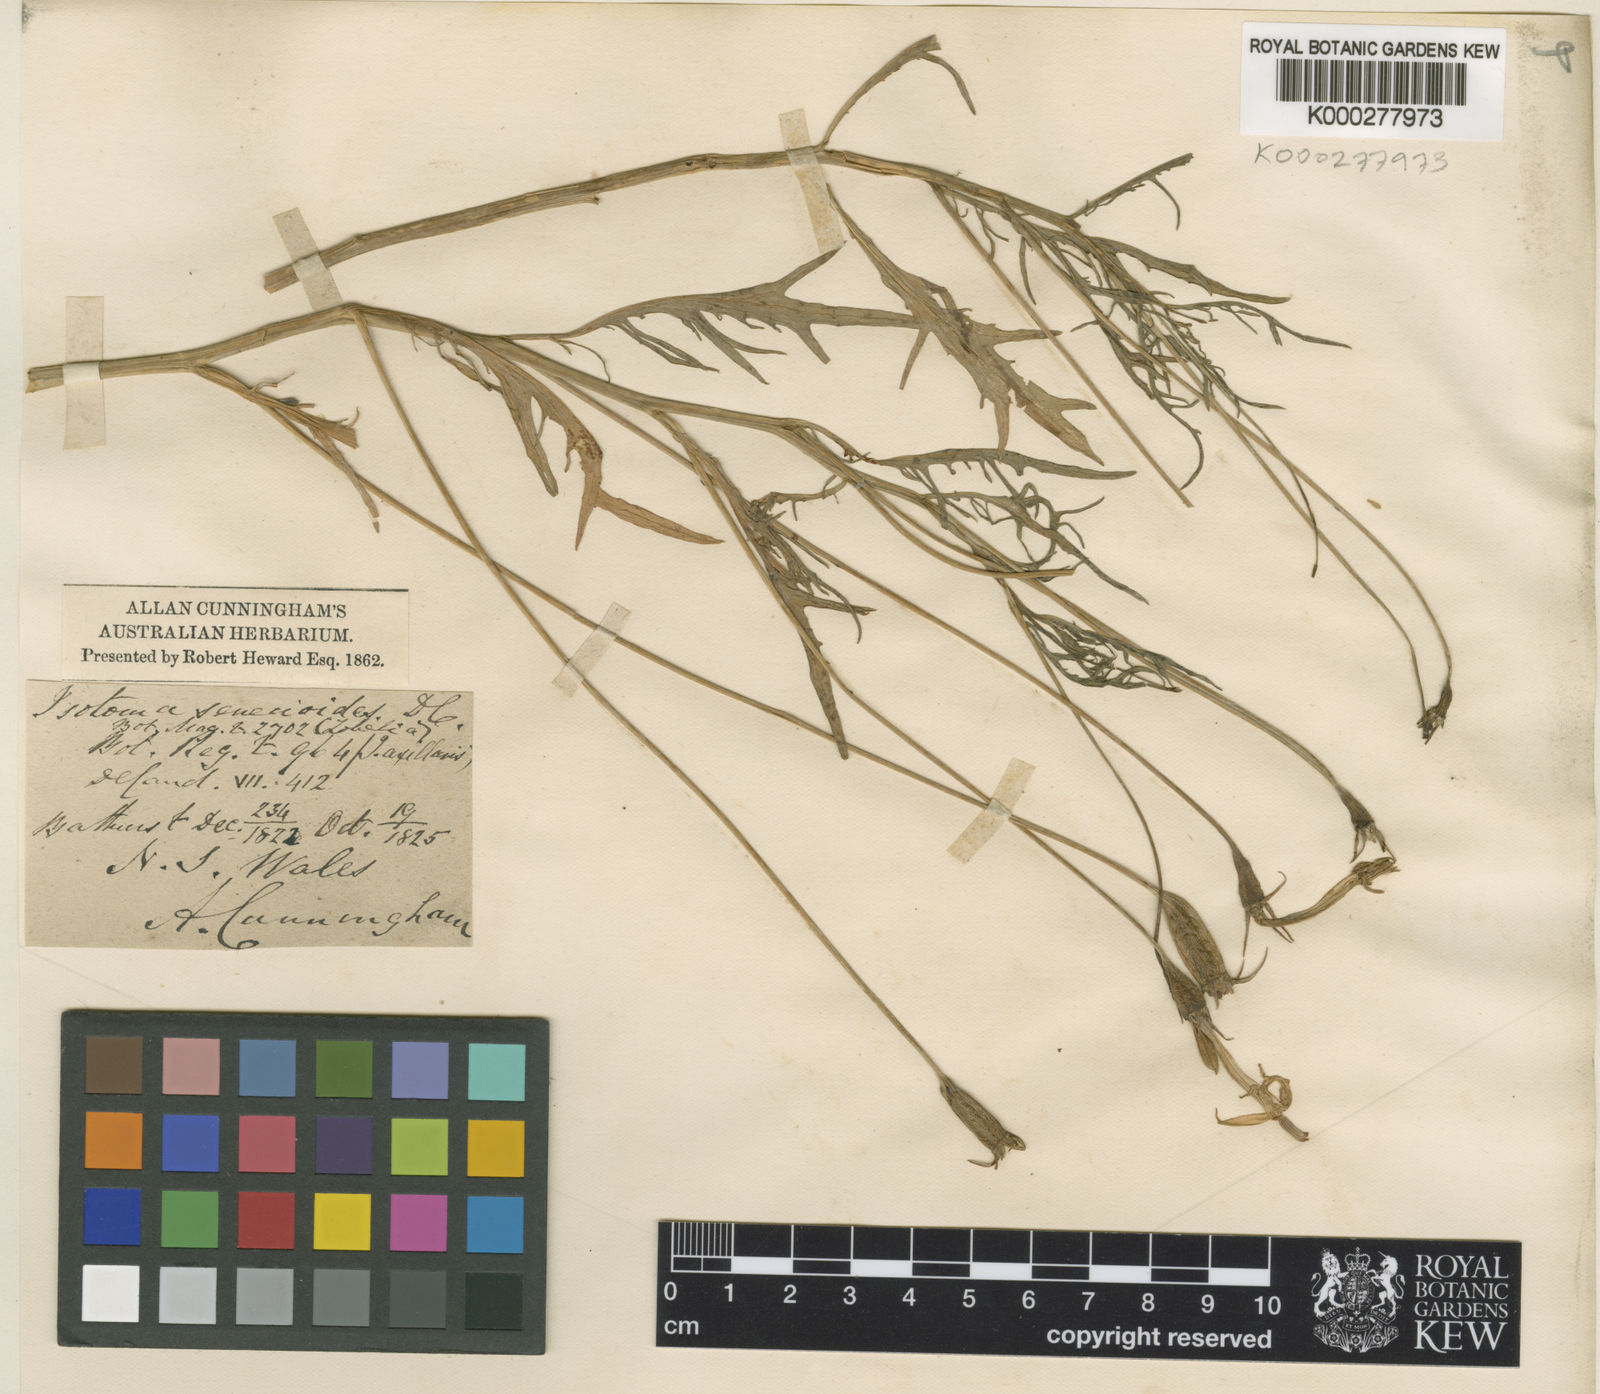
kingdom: Plantae
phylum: Tracheophyta
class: Magnoliopsida
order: Asterales
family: Campanulaceae
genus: Lithotoma
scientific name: Lithotoma axillaris
